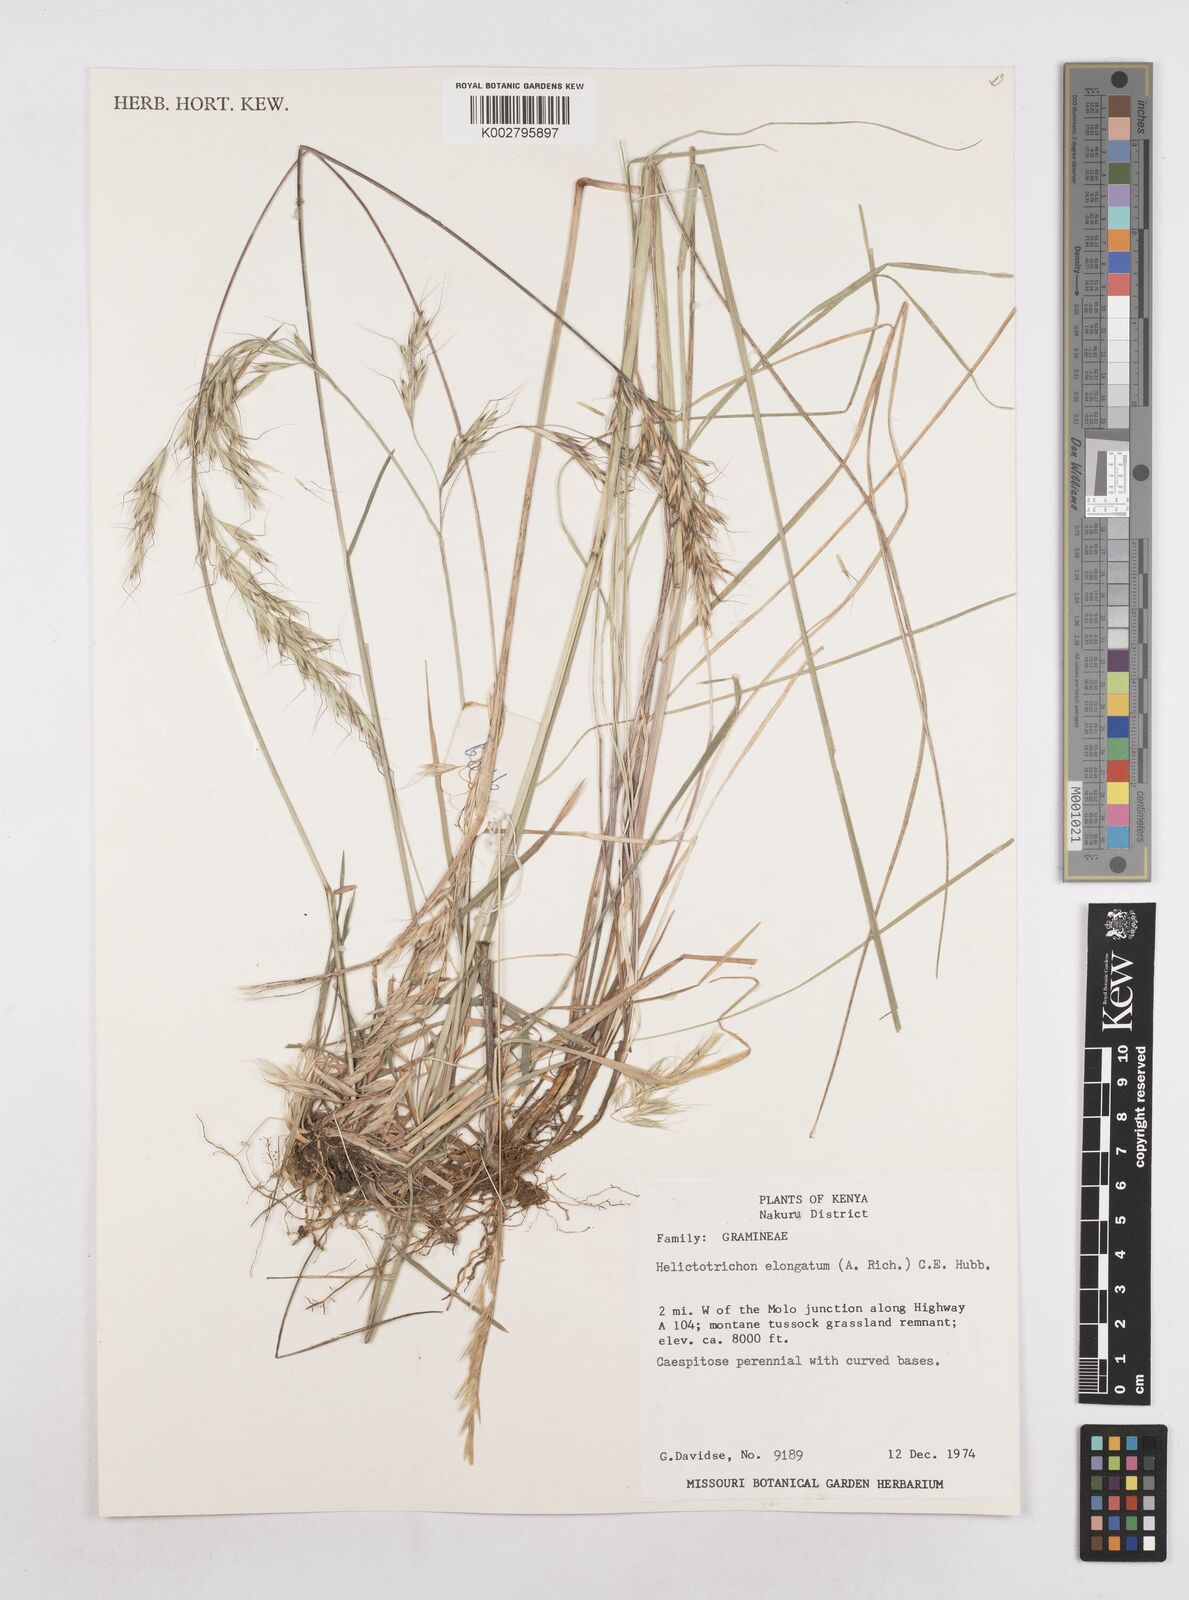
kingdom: Plantae
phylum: Tracheophyta
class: Liliopsida
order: Poales
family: Poaceae
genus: Trisetopsis
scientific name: Trisetopsis elongata
